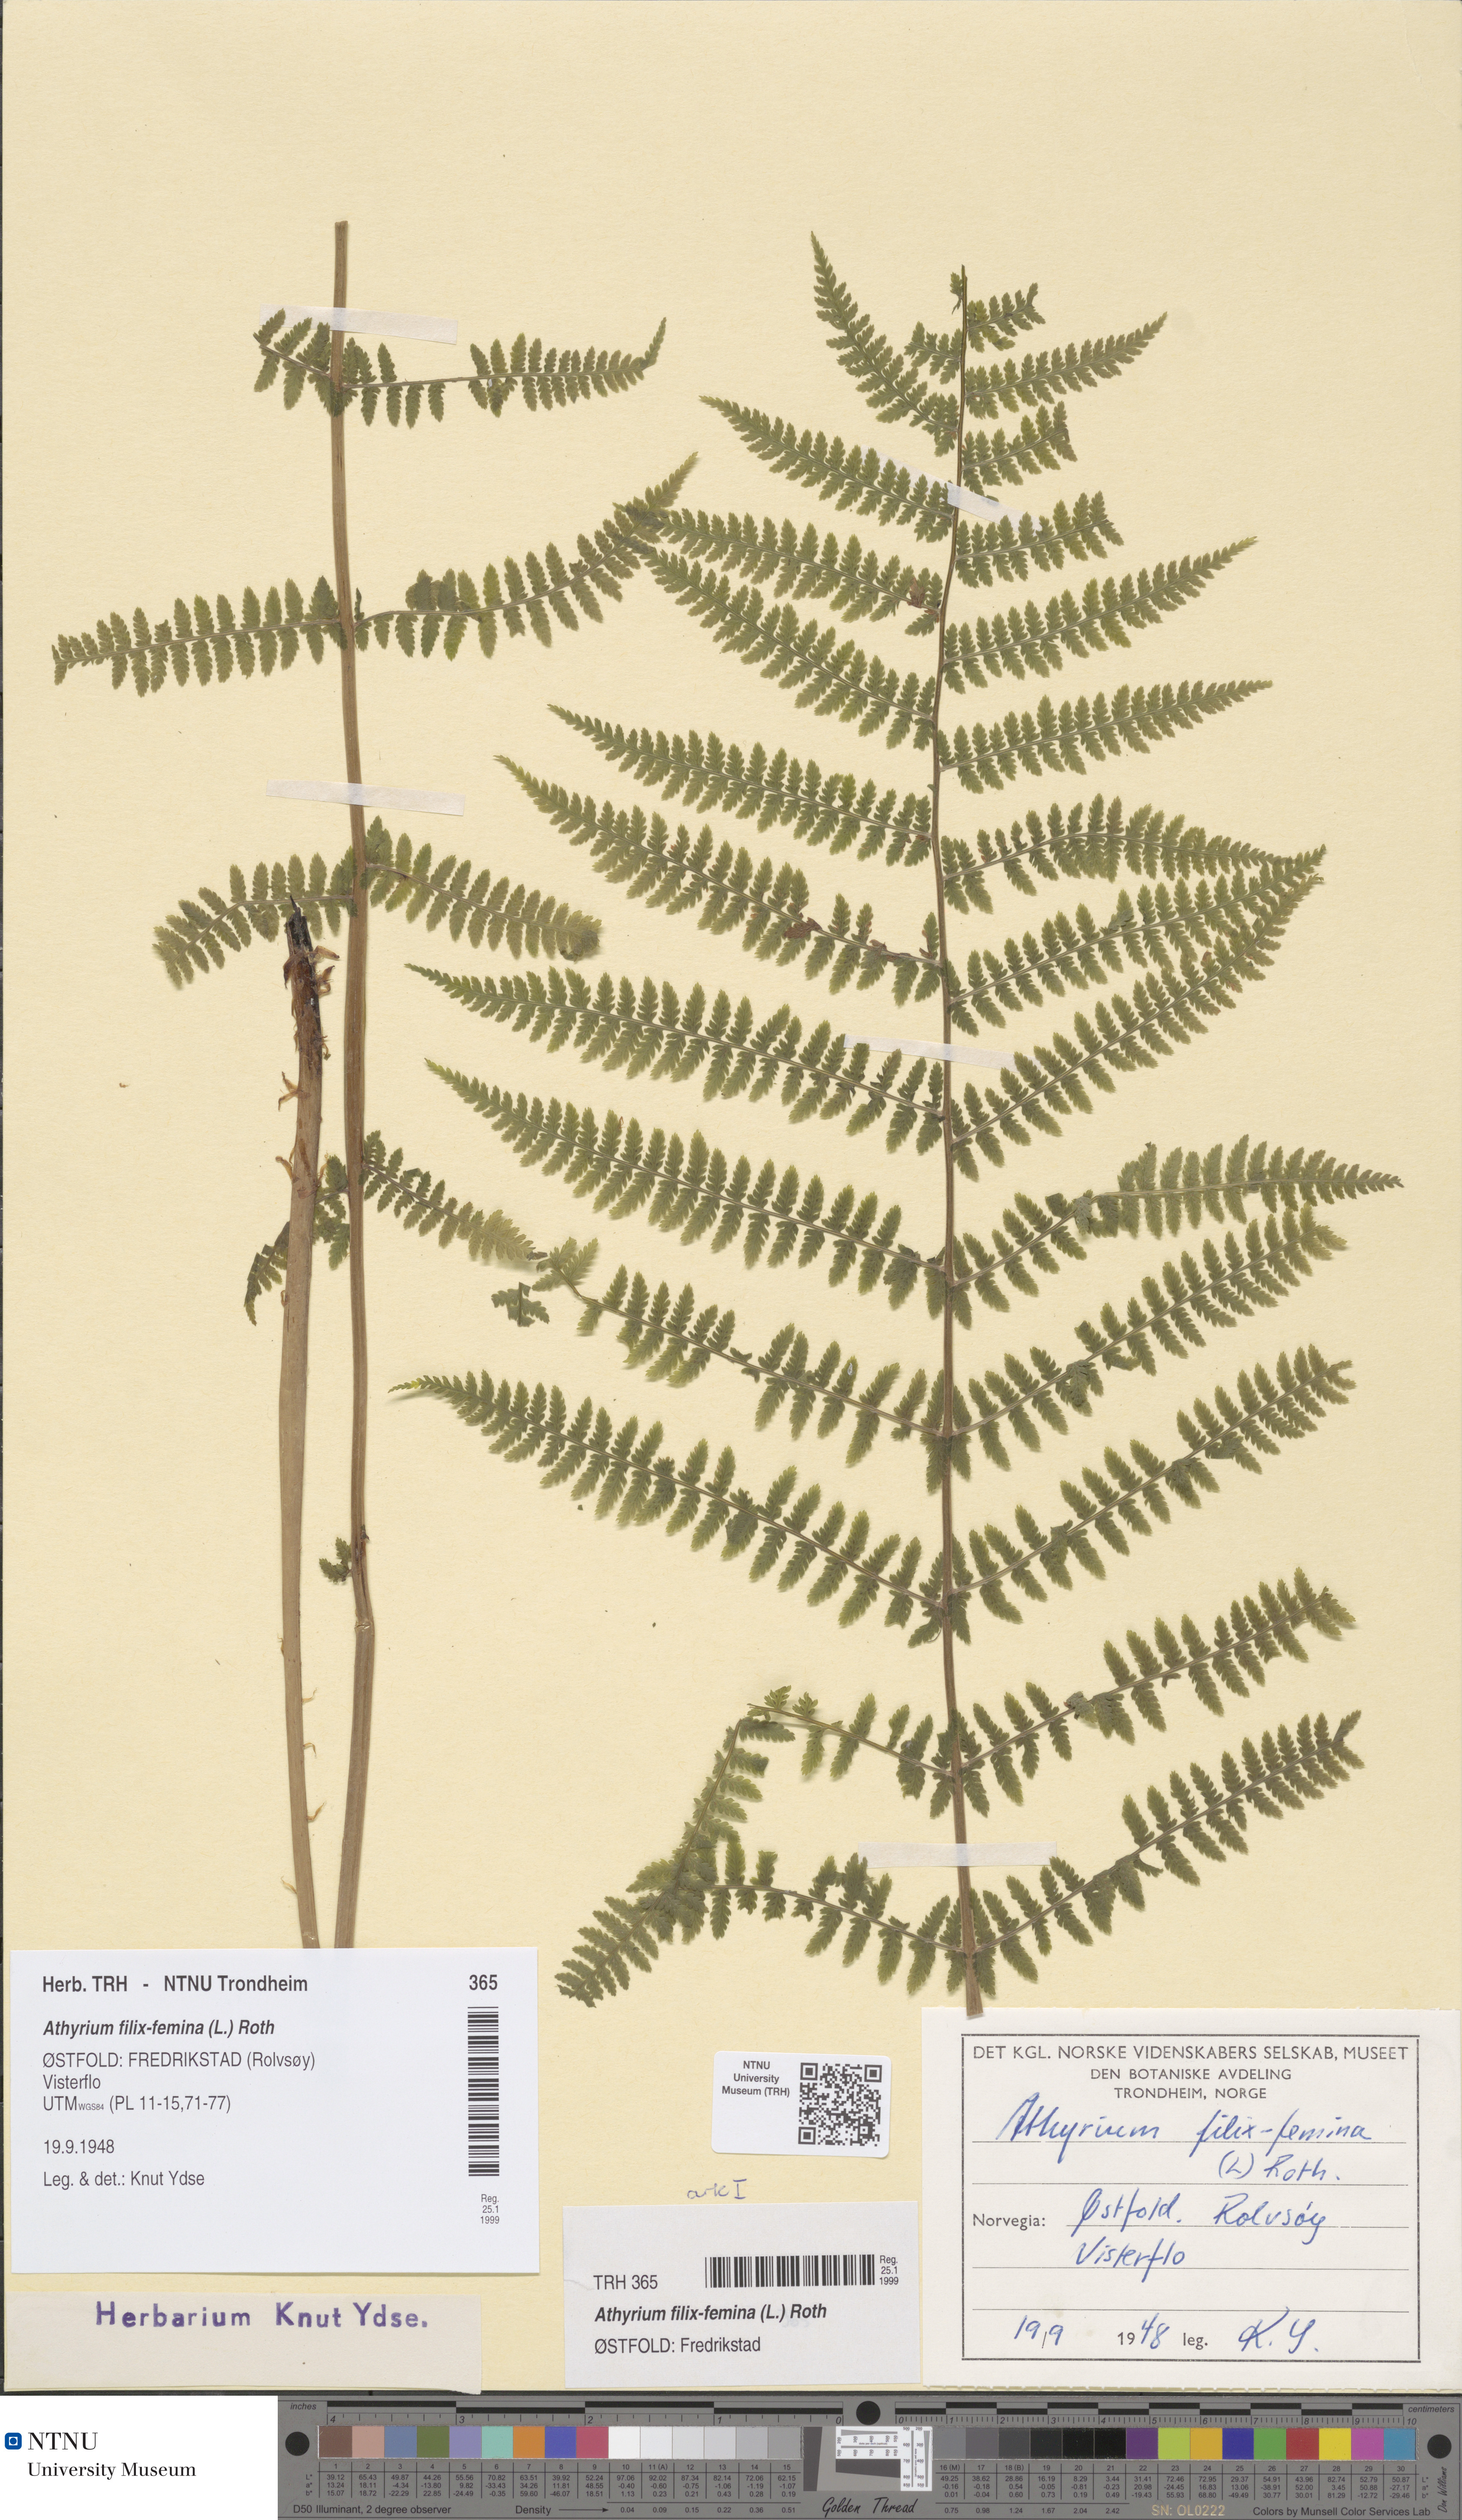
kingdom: Plantae
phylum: Tracheophyta
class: Polypodiopsida
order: Polypodiales
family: Athyriaceae
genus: Athyrium
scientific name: Athyrium filix-femina
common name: Lady fern
